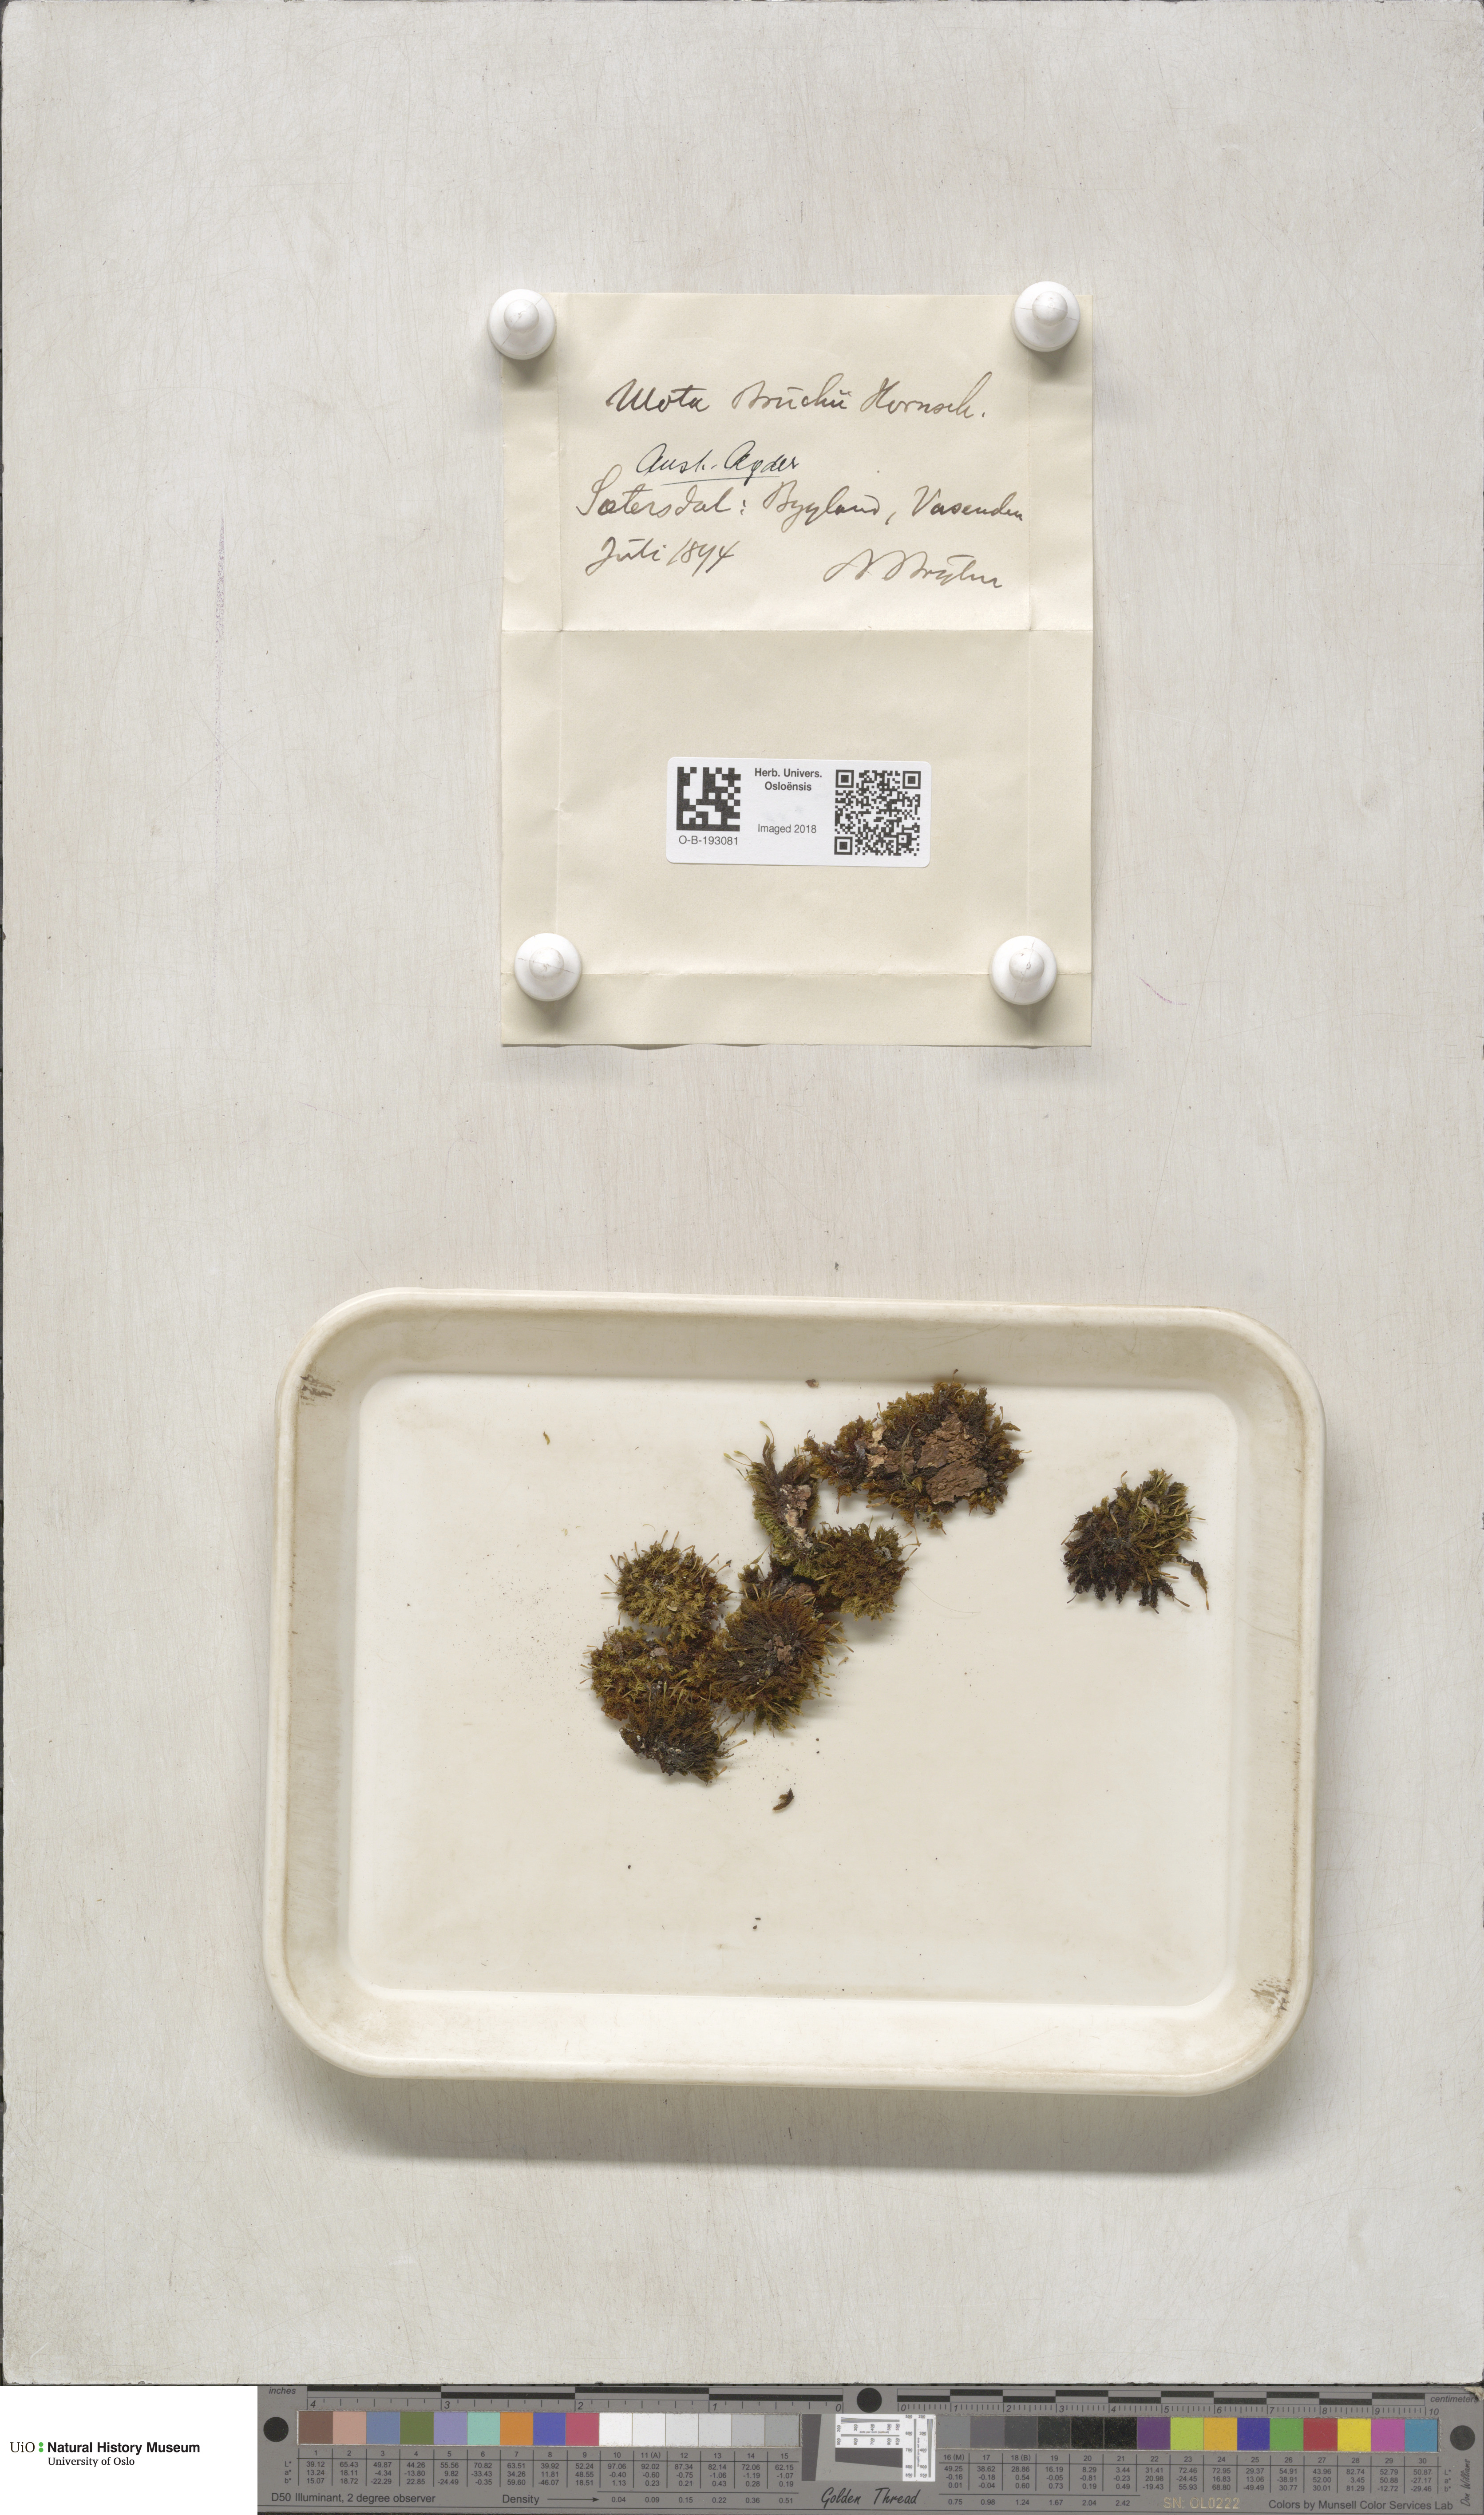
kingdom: Plantae
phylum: Bryophyta
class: Bryopsida
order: Orthotrichales
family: Orthotrichaceae
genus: Ulota
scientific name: Ulota bruchii
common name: Bruch's pincushion
